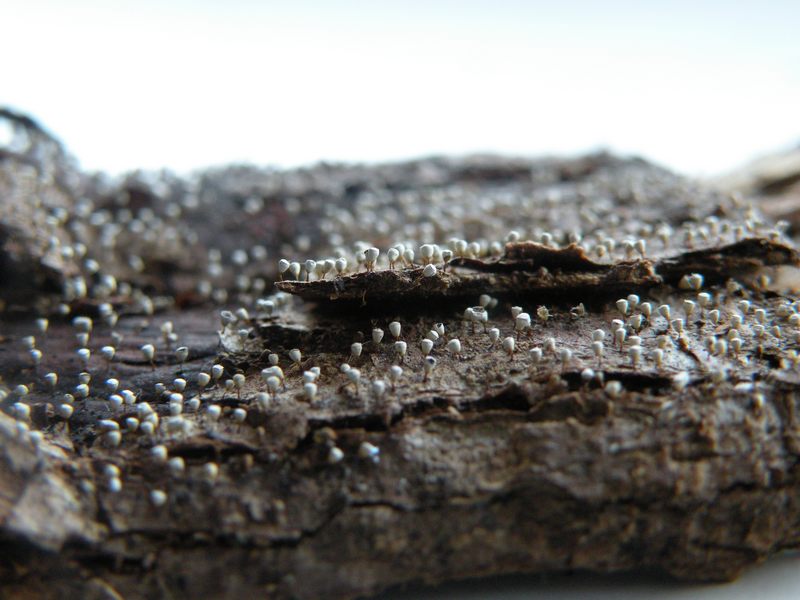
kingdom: Protozoa
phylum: Mycetozoa
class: Myxomycetes
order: Physarales
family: Physaraceae
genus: Craterium
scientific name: Craterium leucocephalum
